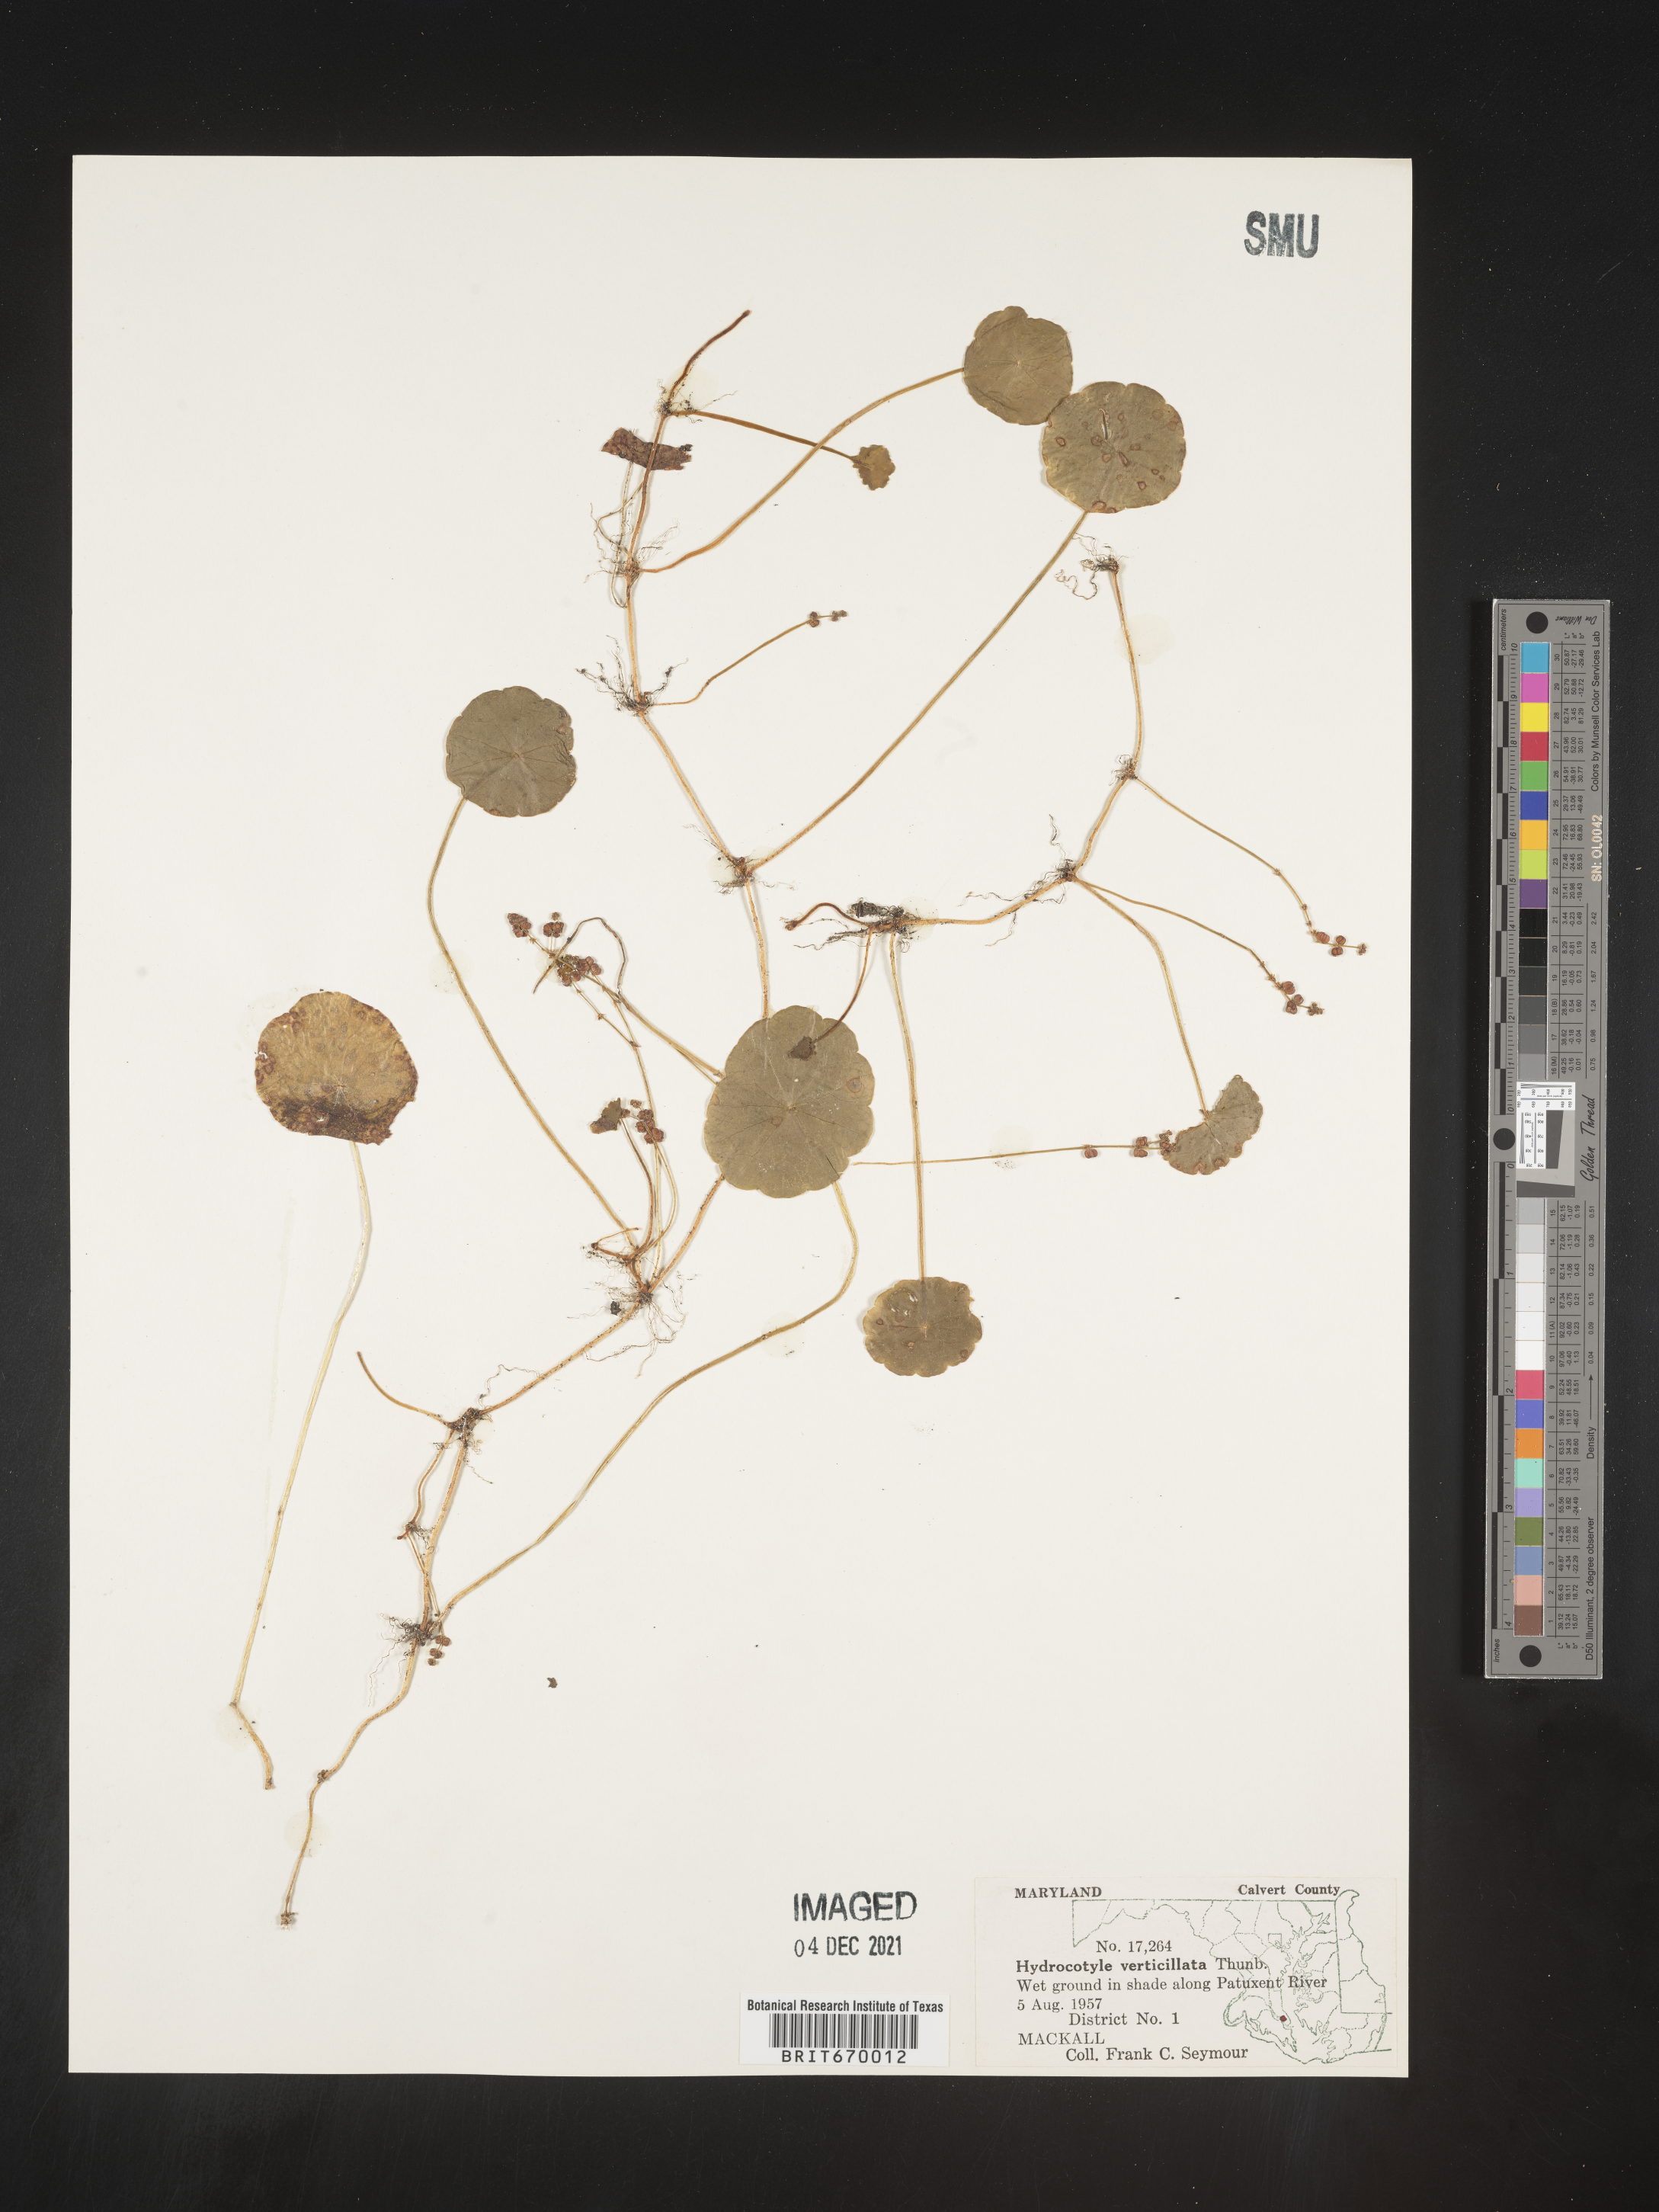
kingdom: Plantae
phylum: Tracheophyta
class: Magnoliopsida
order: Apiales
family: Araliaceae
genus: Hydrocotyle
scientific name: Hydrocotyle verticillata
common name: Whorled marshpennywort
